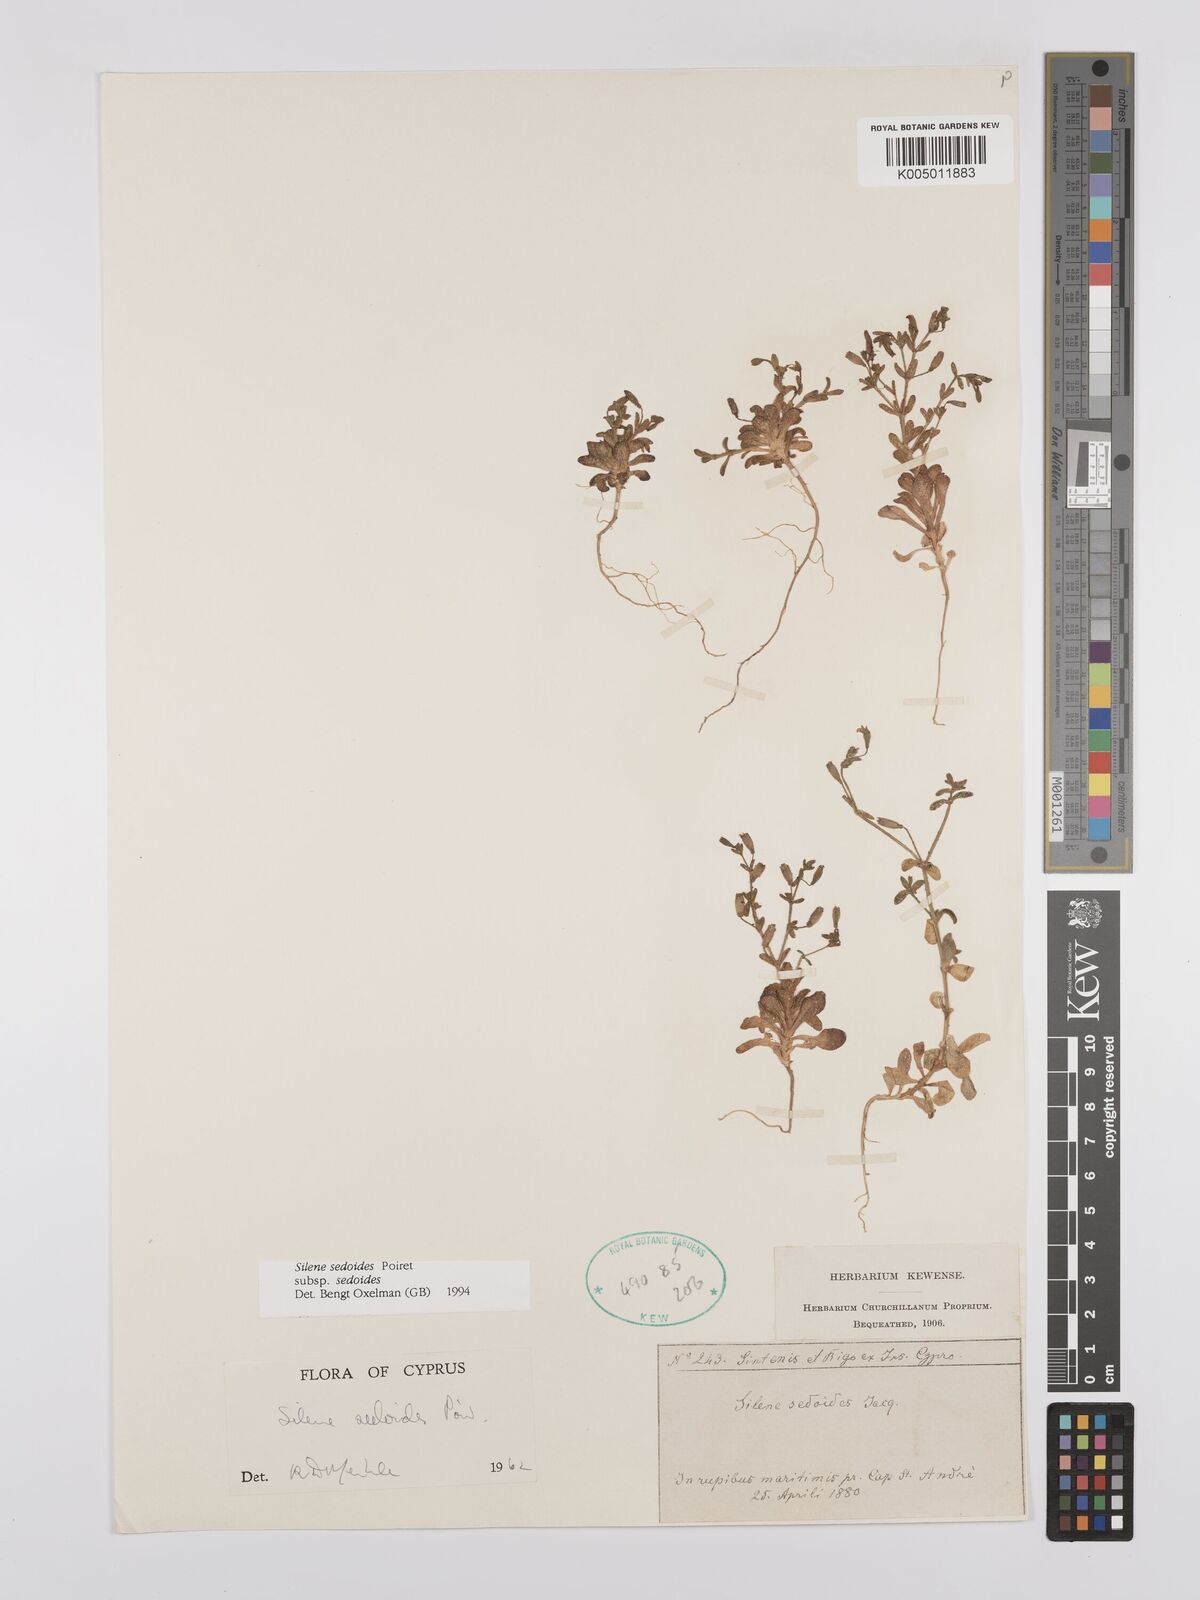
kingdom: Plantae
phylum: Tracheophyta
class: Magnoliopsida
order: Caryophyllales
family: Caryophyllaceae
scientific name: Caryophyllaceae
